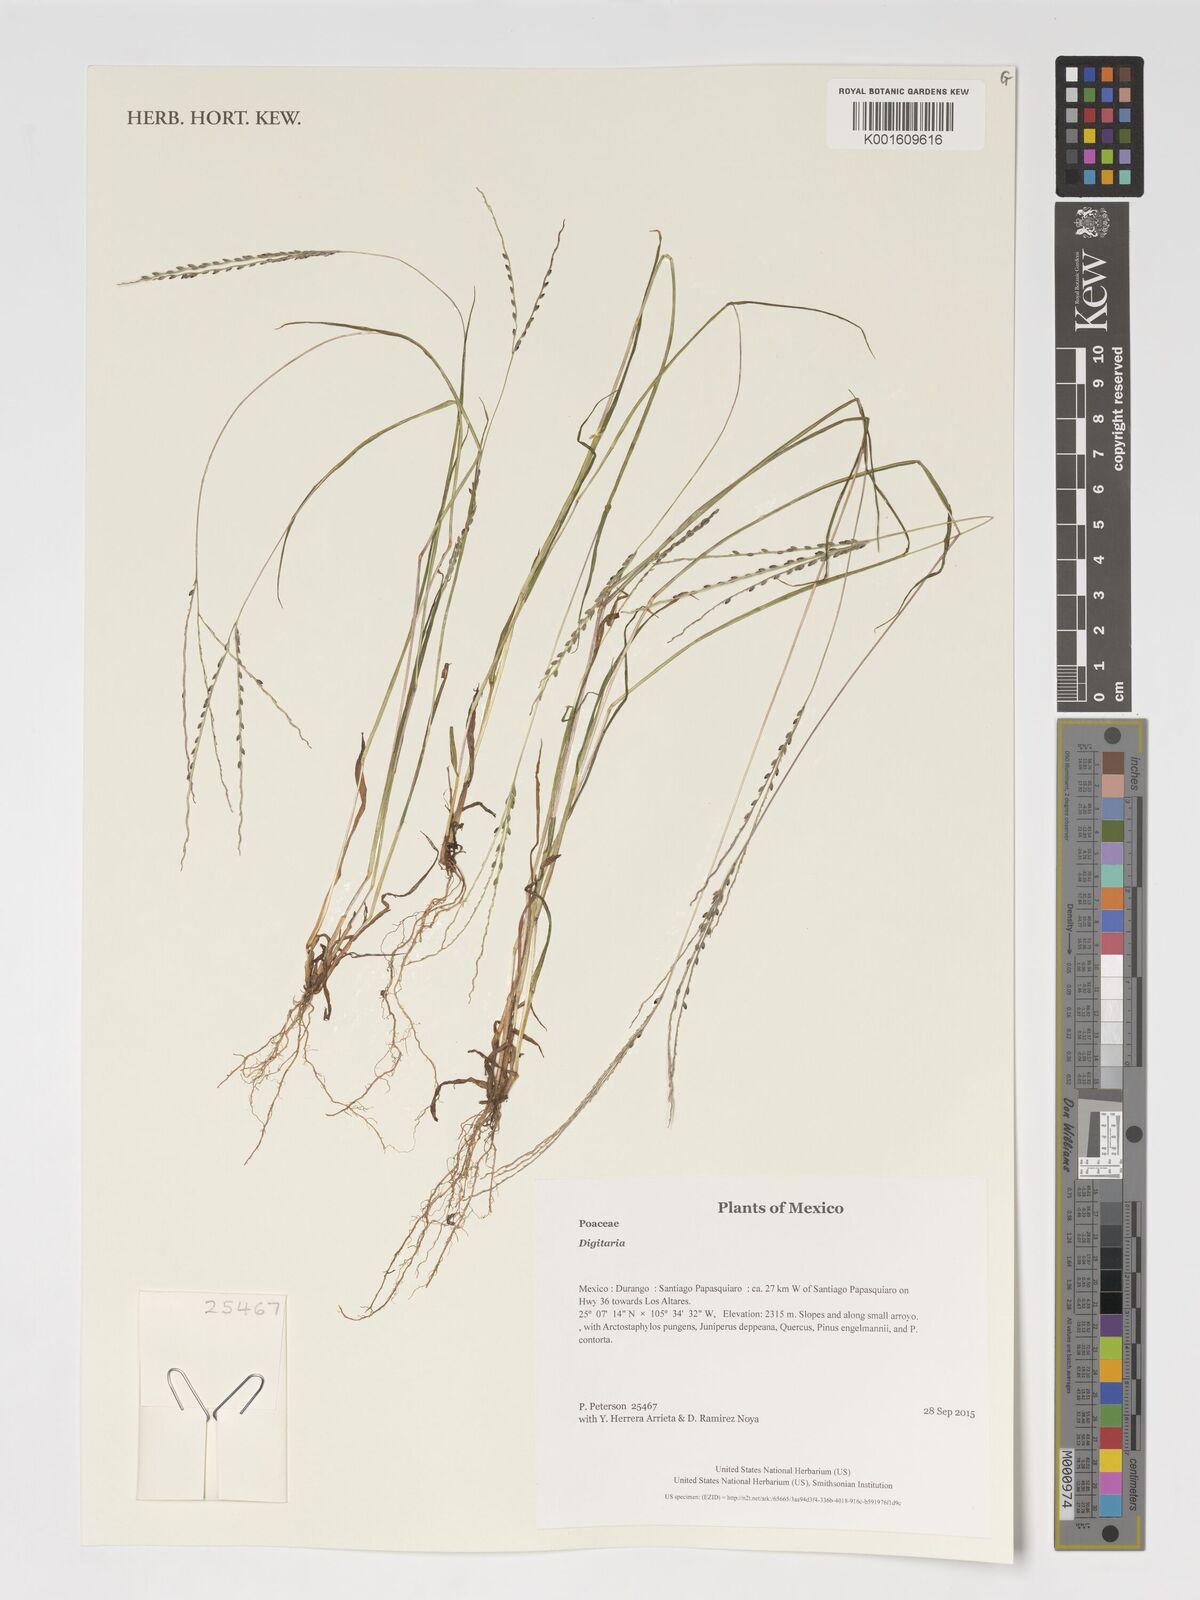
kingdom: Plantae
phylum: Tracheophyta
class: Liliopsida
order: Poales
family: Poaceae
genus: Digitaria
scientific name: Digitaria
